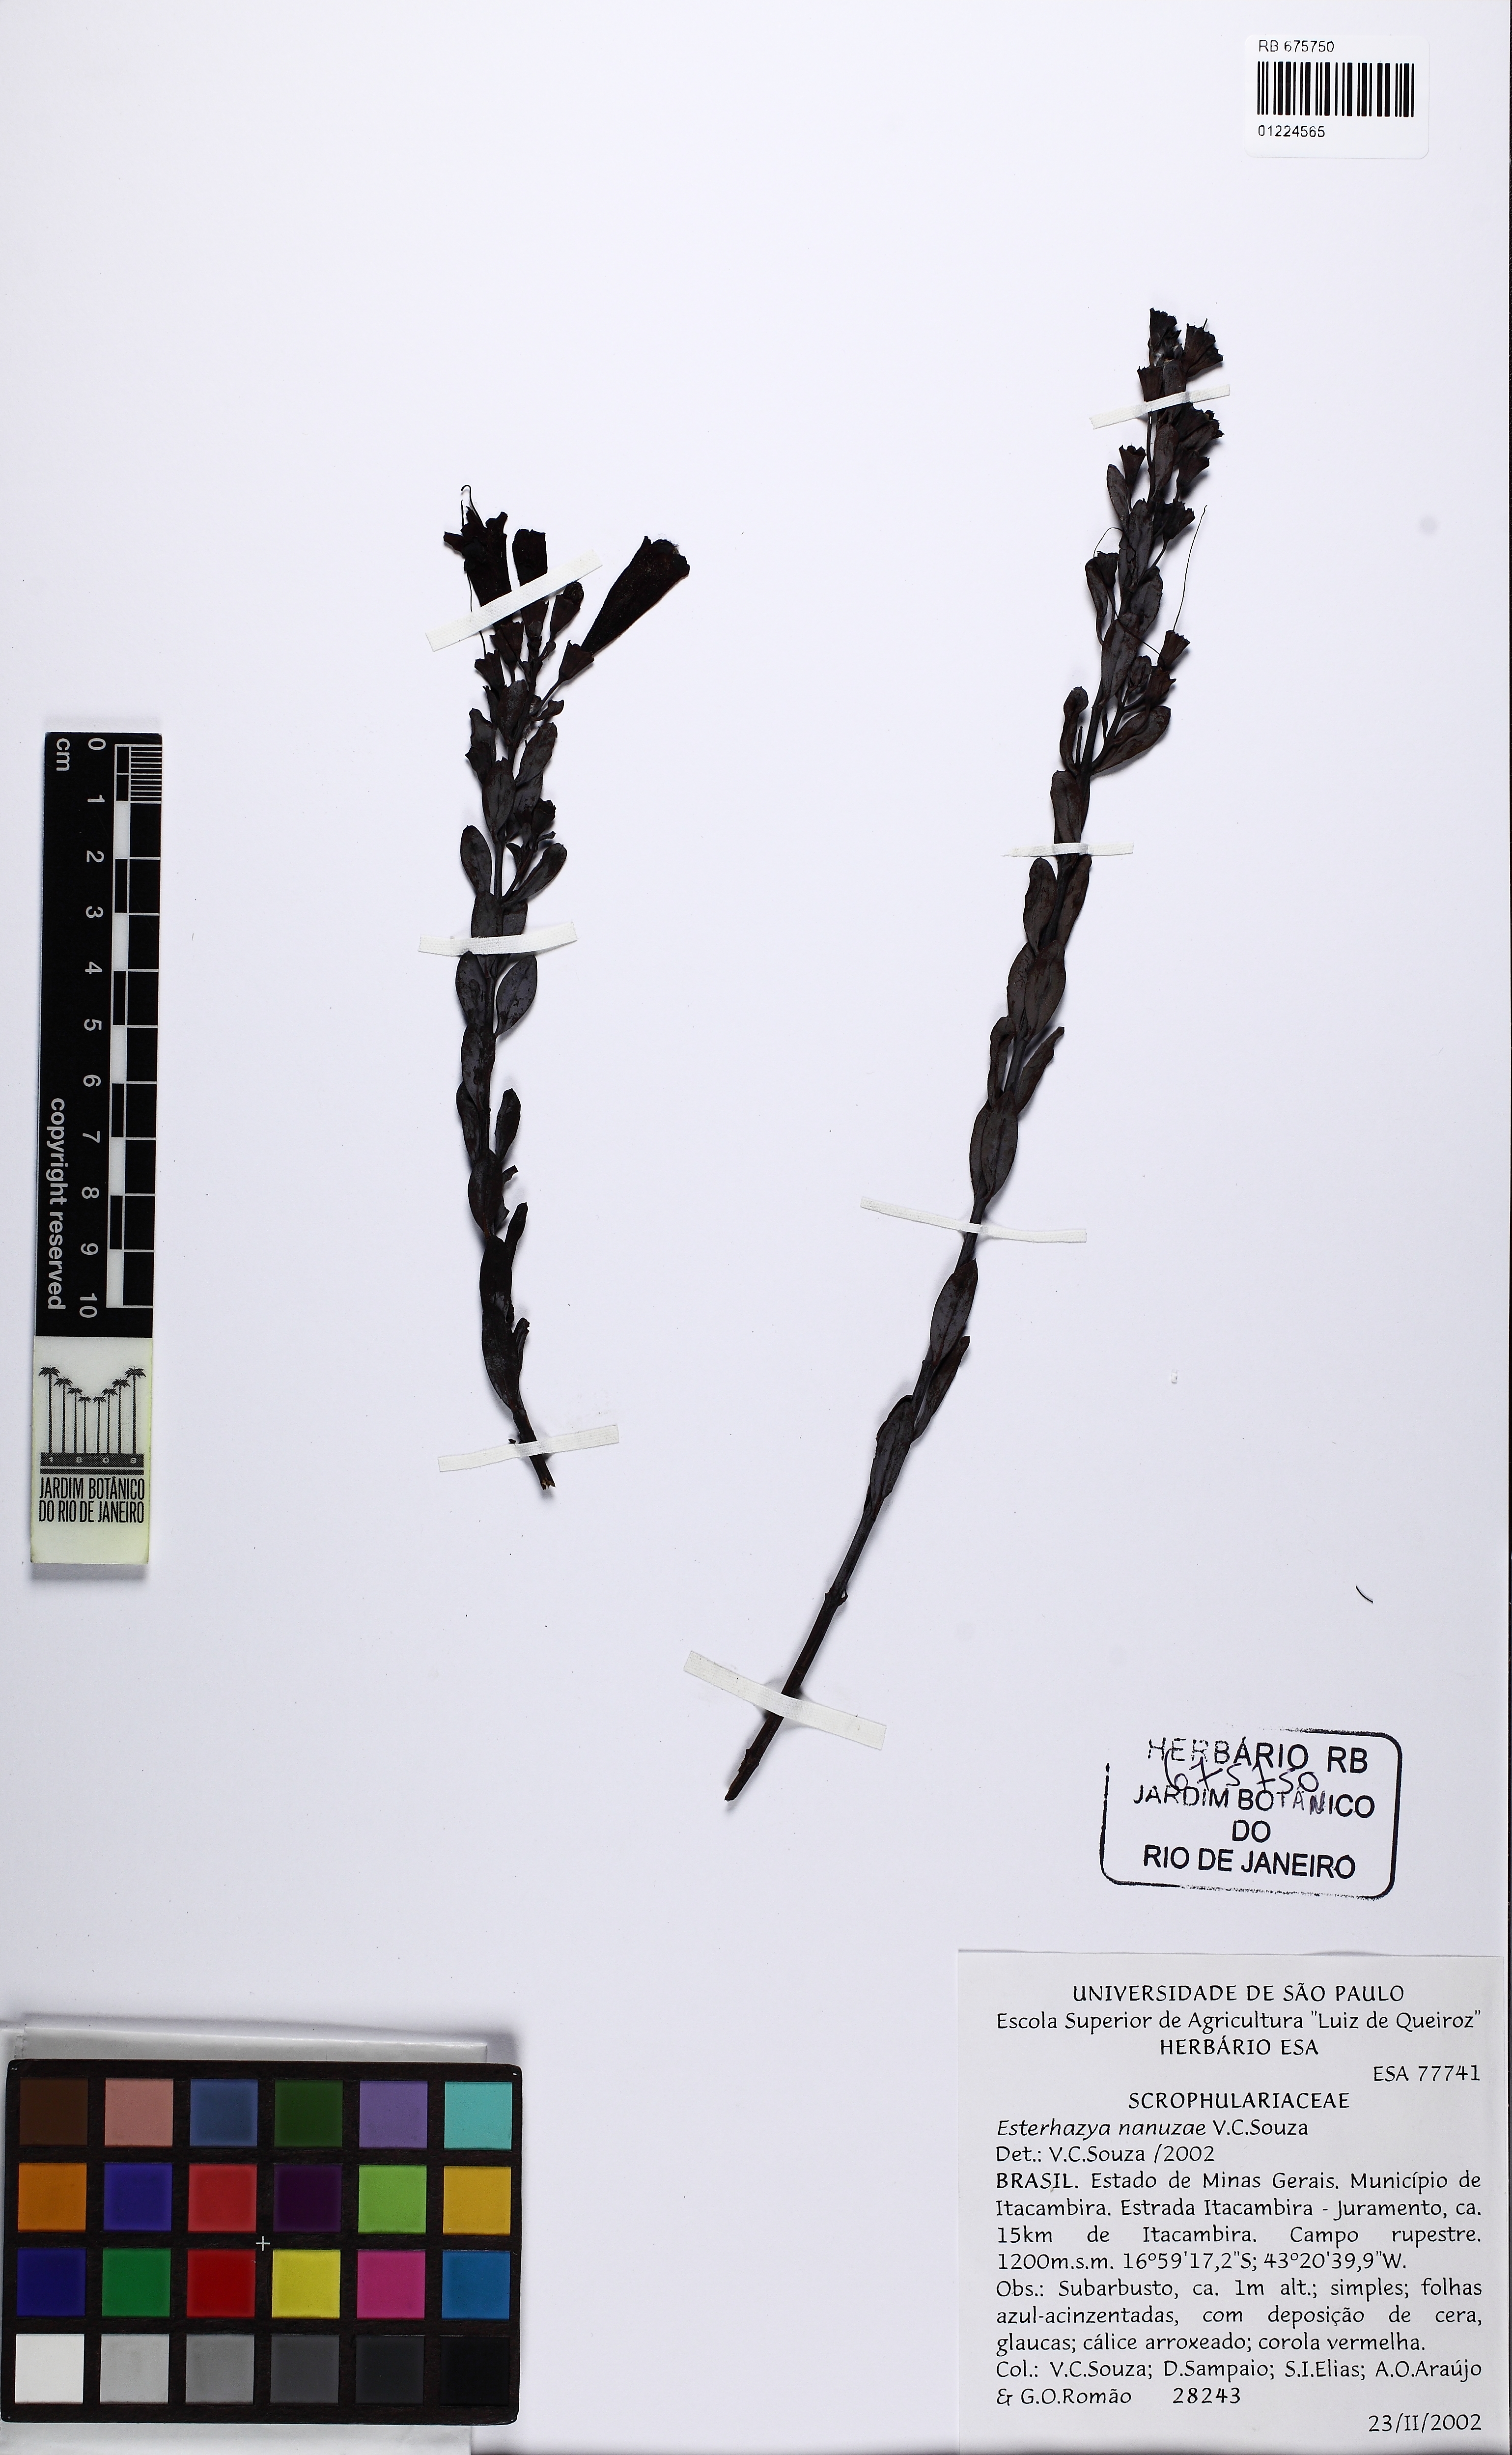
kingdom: Plantae
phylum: Tracheophyta
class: Magnoliopsida
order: Lamiales
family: Orobanchaceae
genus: Esterhazya
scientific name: Esterhazya nanuzae
